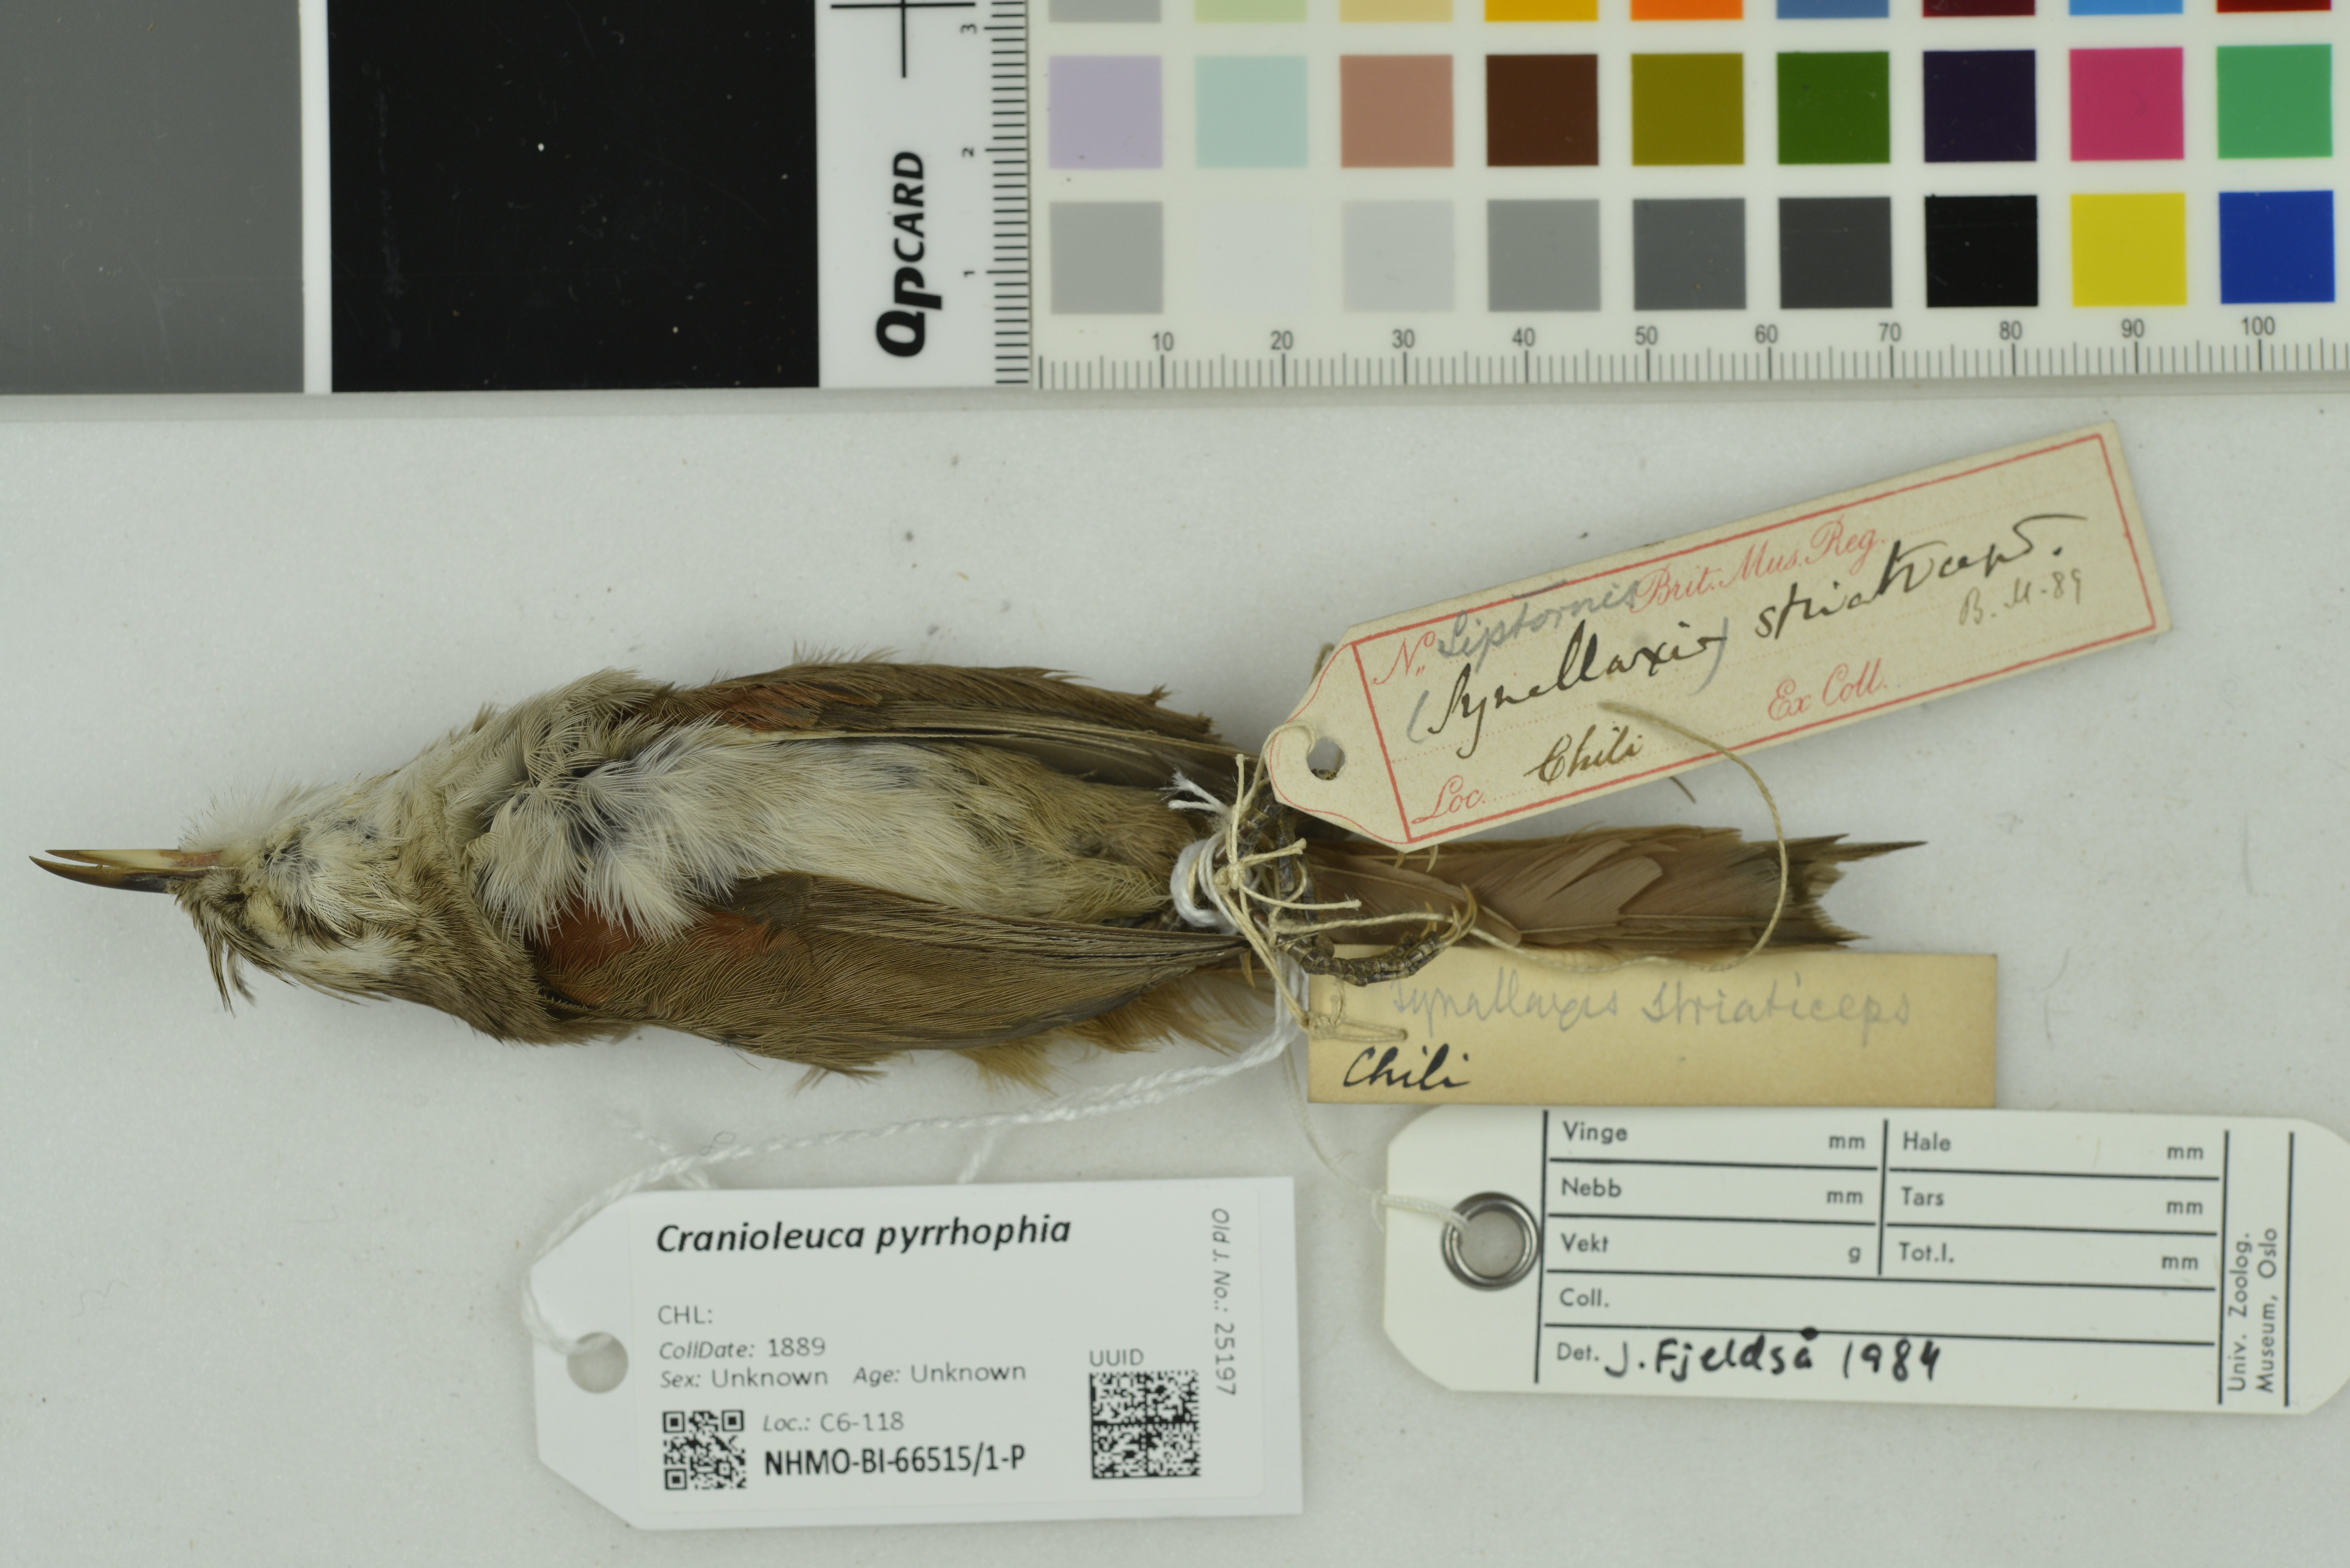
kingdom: Animalia
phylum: Chordata
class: Aves
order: Passeriformes
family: Furnariidae
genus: Cranioleuca
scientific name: Cranioleuca pyrrhophia
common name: Stripe-crowned spinetail
